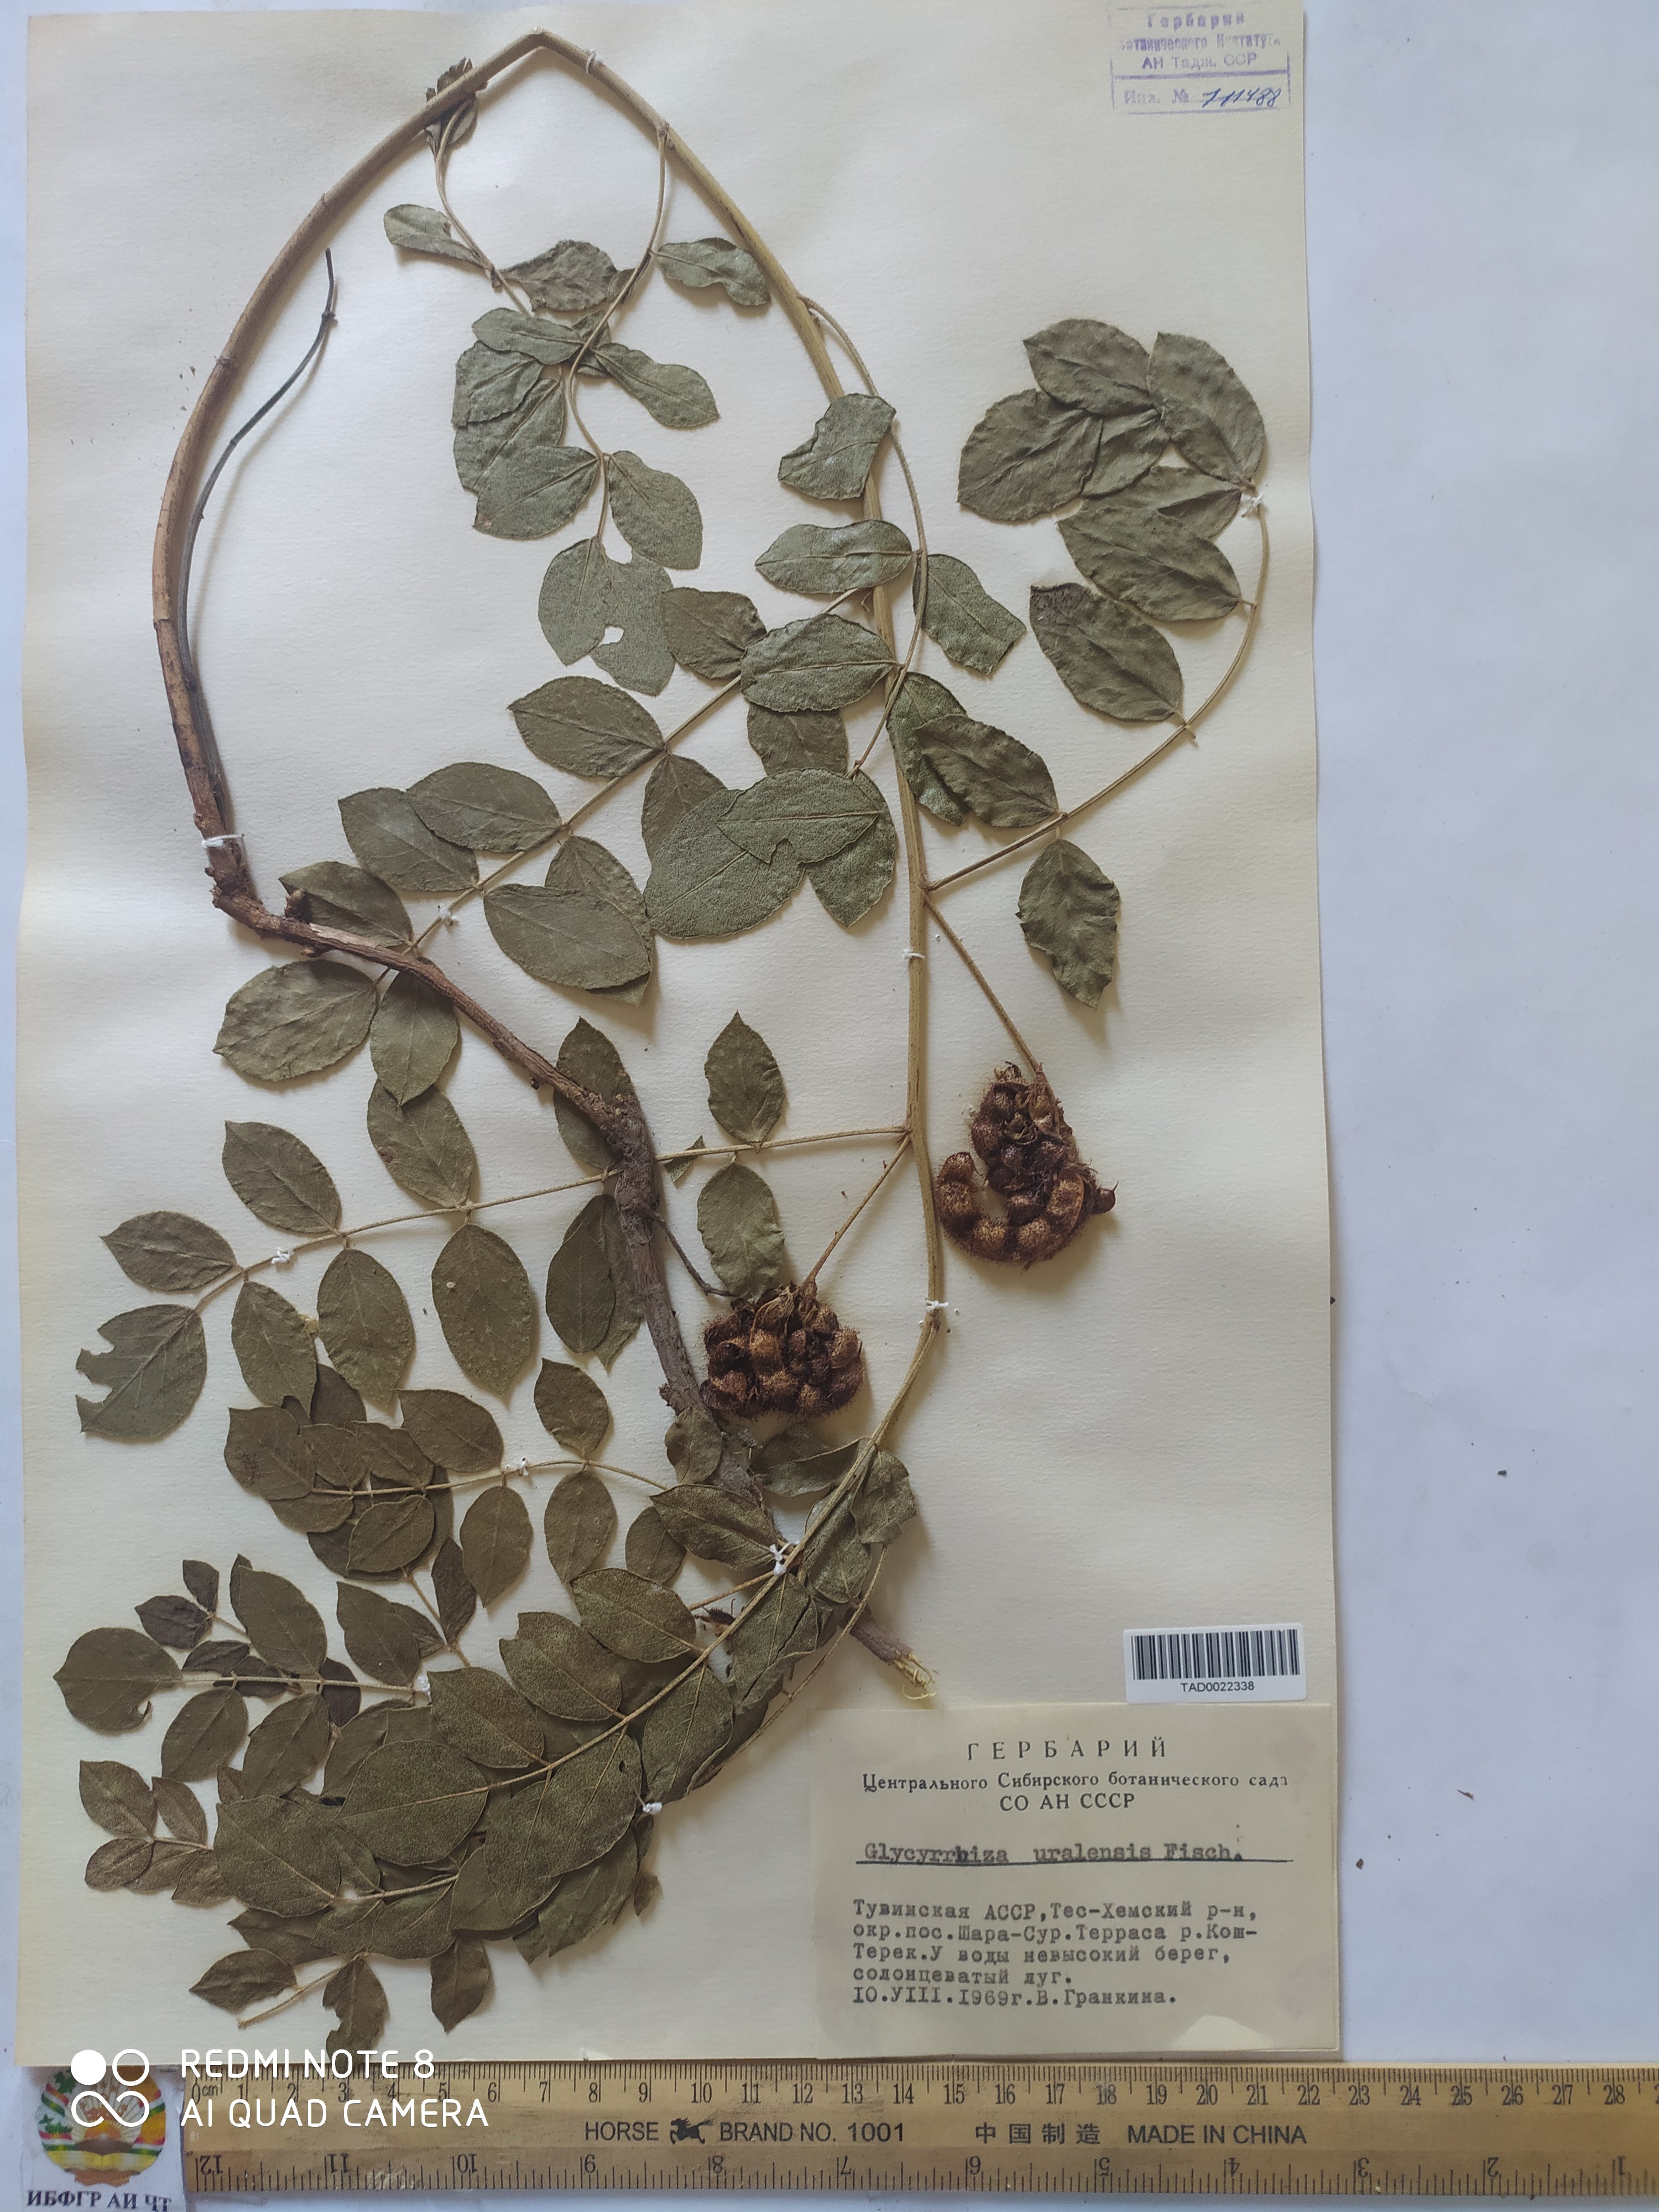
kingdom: Plantae
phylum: Tracheophyta
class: Magnoliopsida
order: Fabales
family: Fabaceae
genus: Glycyrrhiza
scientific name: Glycyrrhiza uralensis
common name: Chinese licorice
